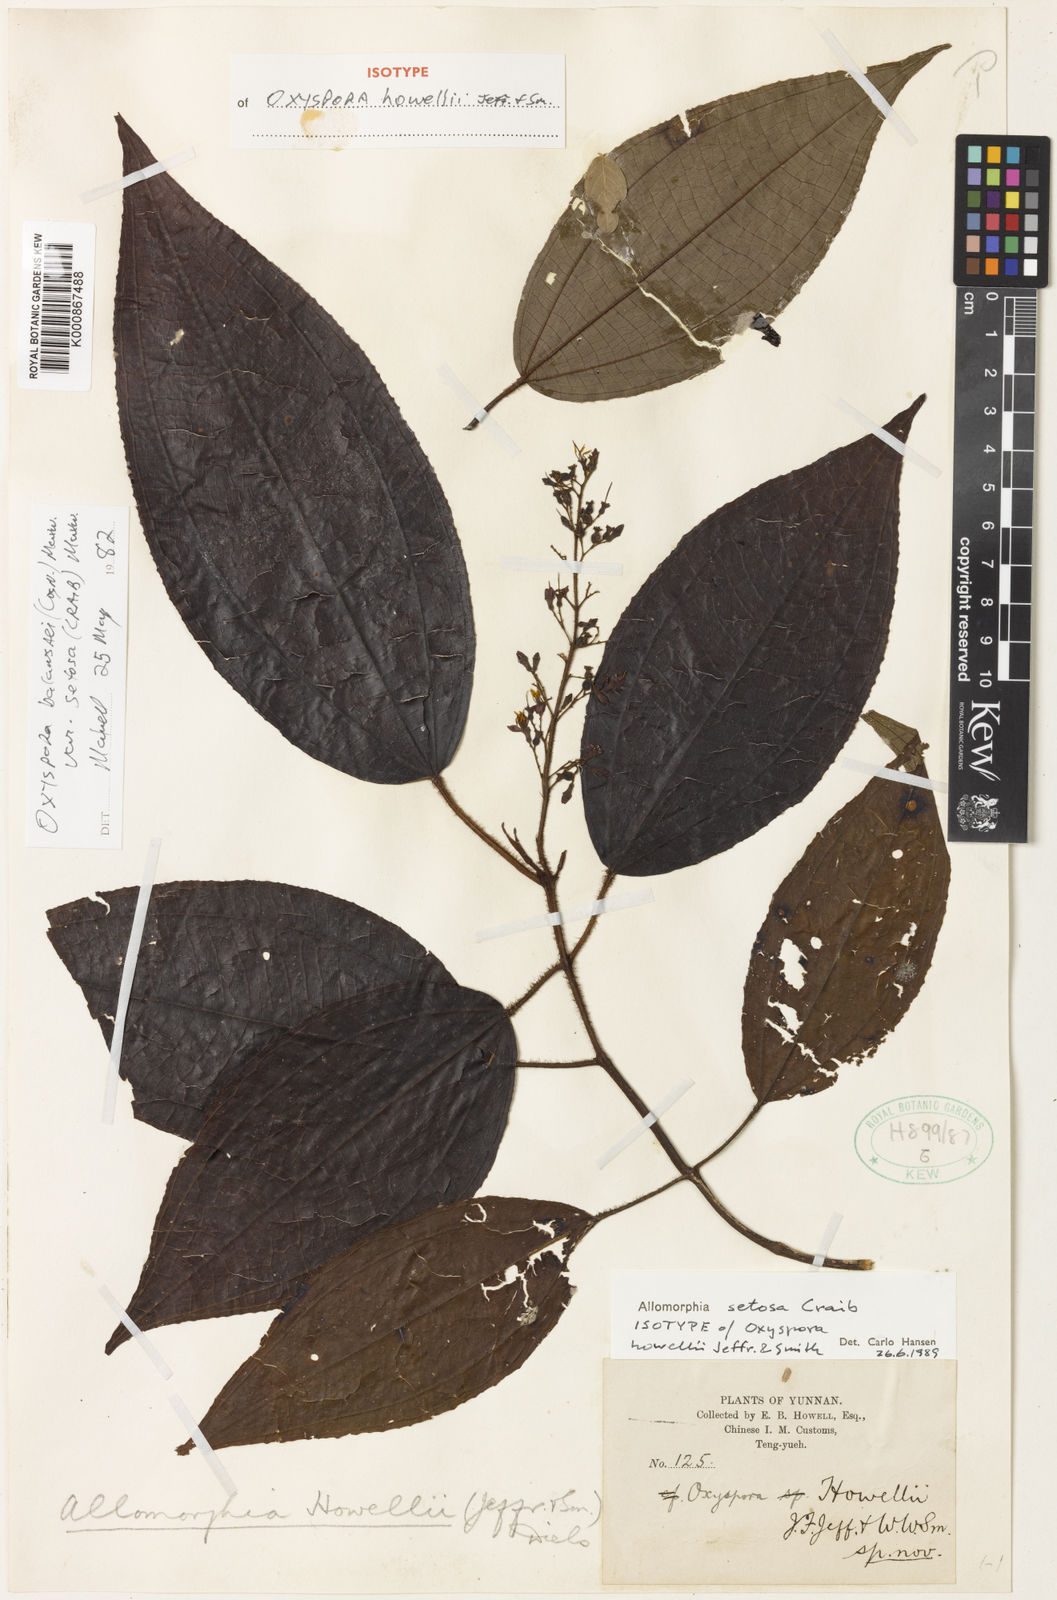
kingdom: Plantae
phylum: Tracheophyta
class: Magnoliopsida
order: Myrtales
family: Melastomataceae
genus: Allomorphia
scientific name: Allomorphia howellii
